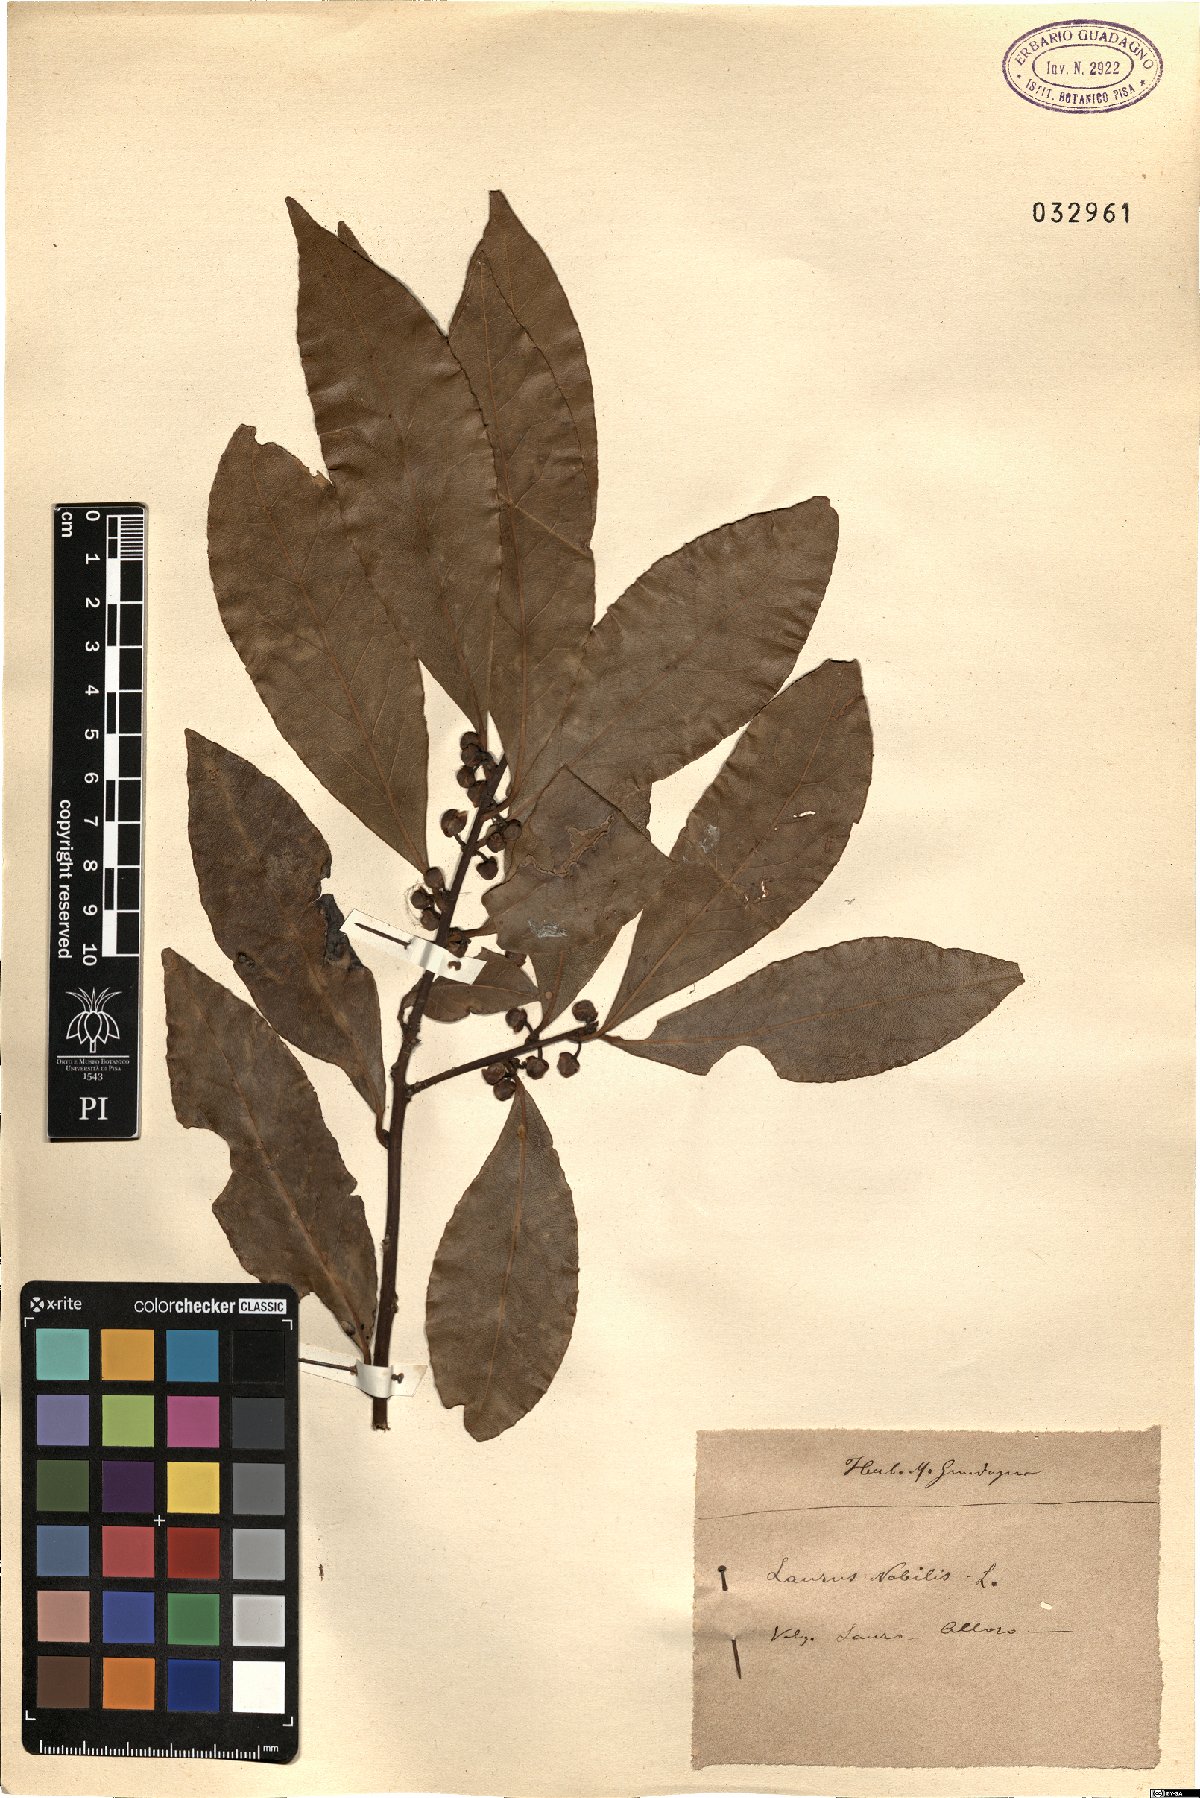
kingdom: Plantae
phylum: Tracheophyta
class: Magnoliopsida
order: Laurales
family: Lauraceae
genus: Laurus
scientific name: Laurus nobilis
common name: Bay
